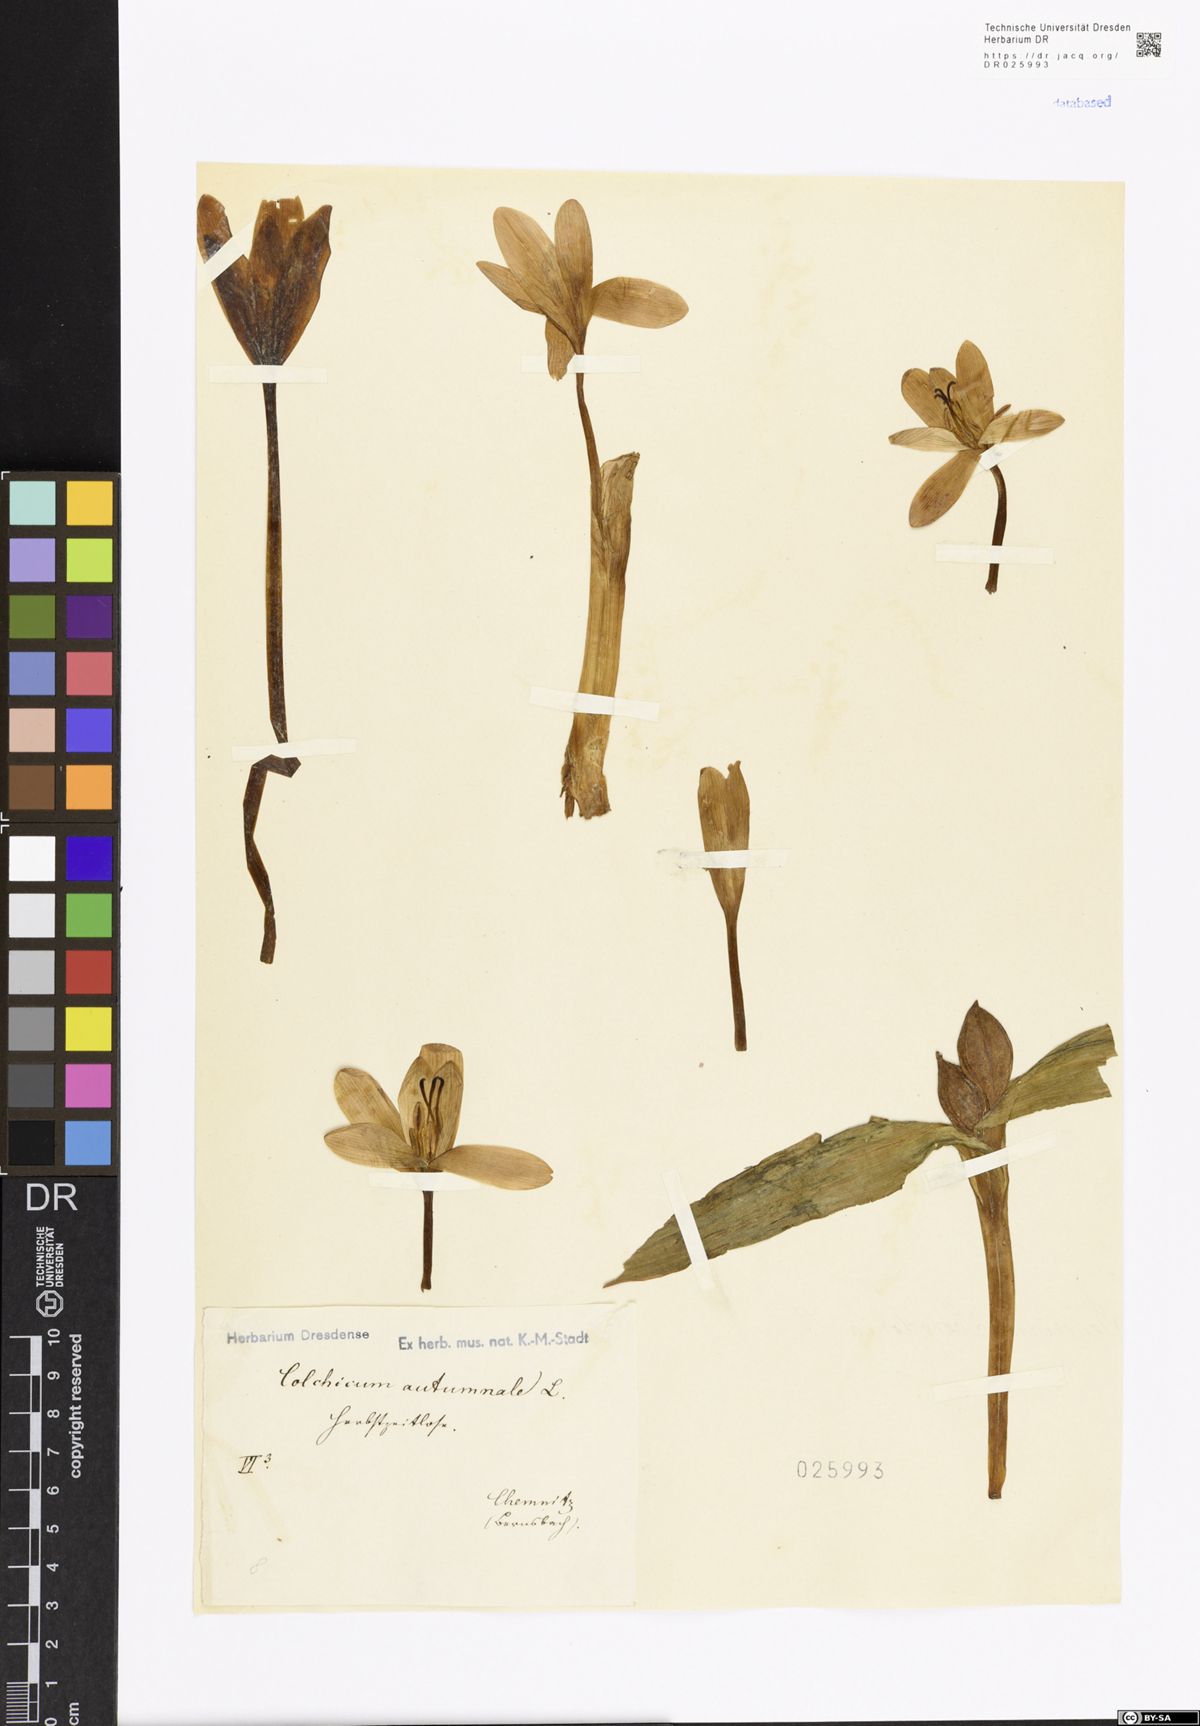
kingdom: Plantae
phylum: Tracheophyta
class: Liliopsida
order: Liliales
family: Colchicaceae
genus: Colchicum
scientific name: Colchicum autumnale
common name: Autumn crocus
